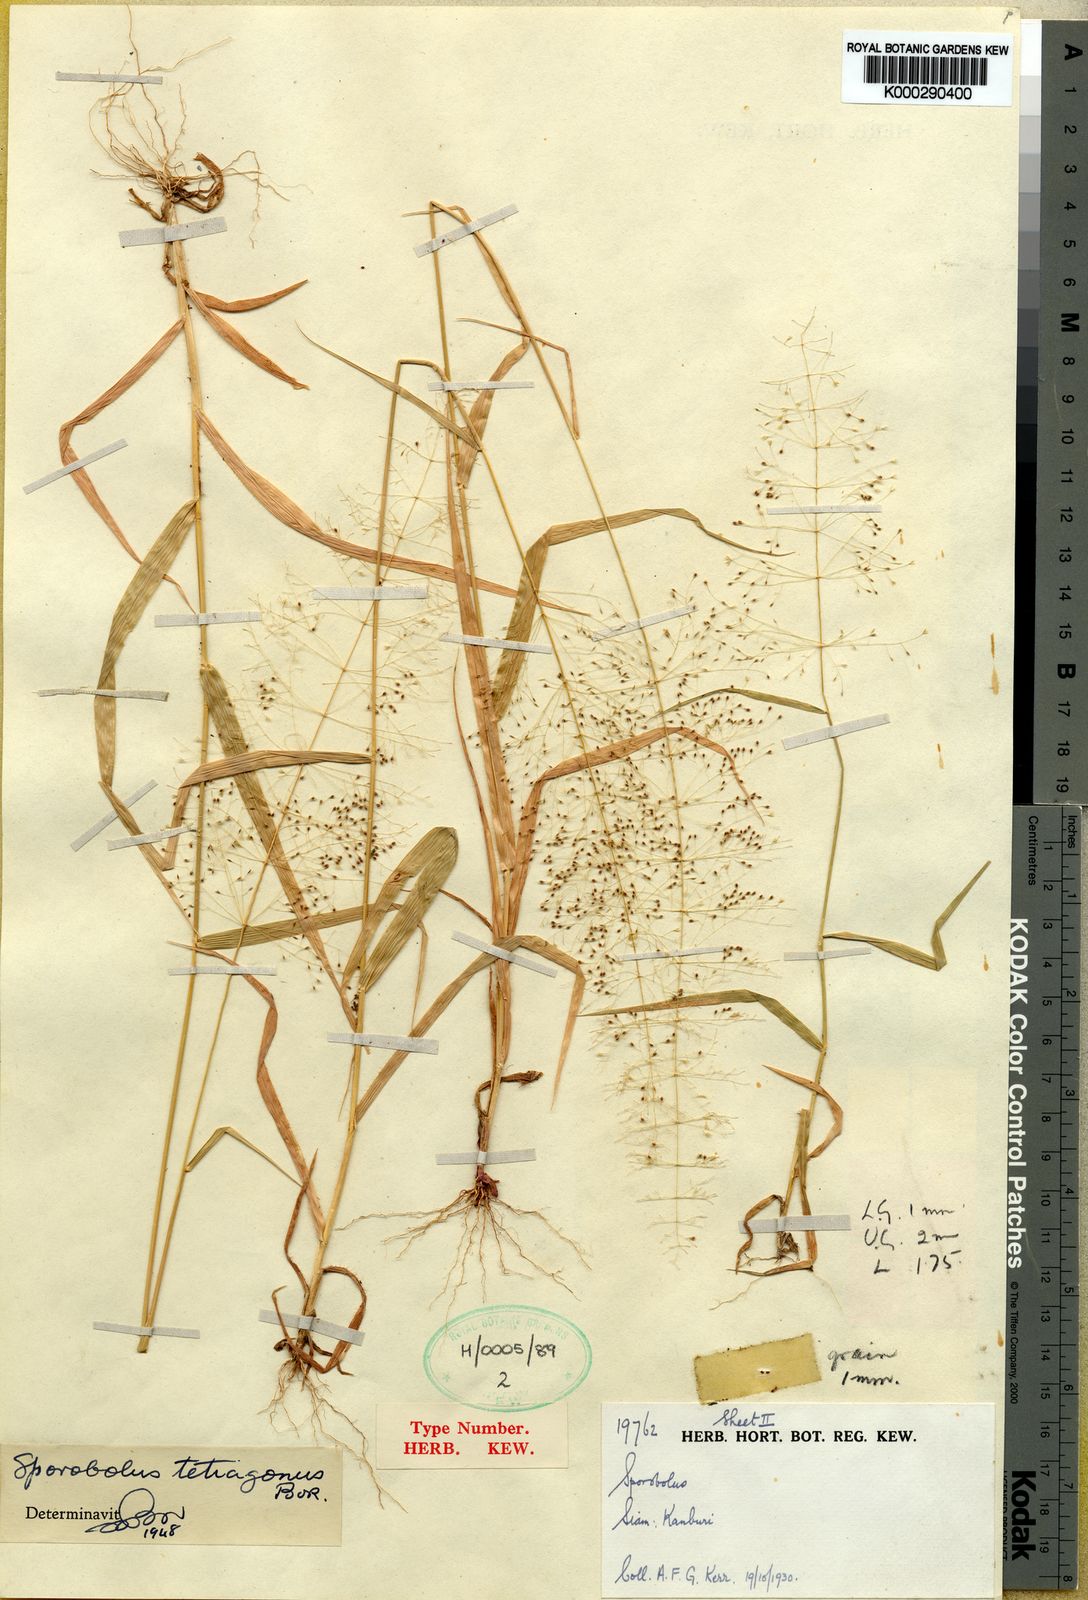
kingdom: Plantae
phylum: Tracheophyta
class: Liliopsida
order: Poales
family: Poaceae
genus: Sporobolus
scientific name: Sporobolus tetragonus
